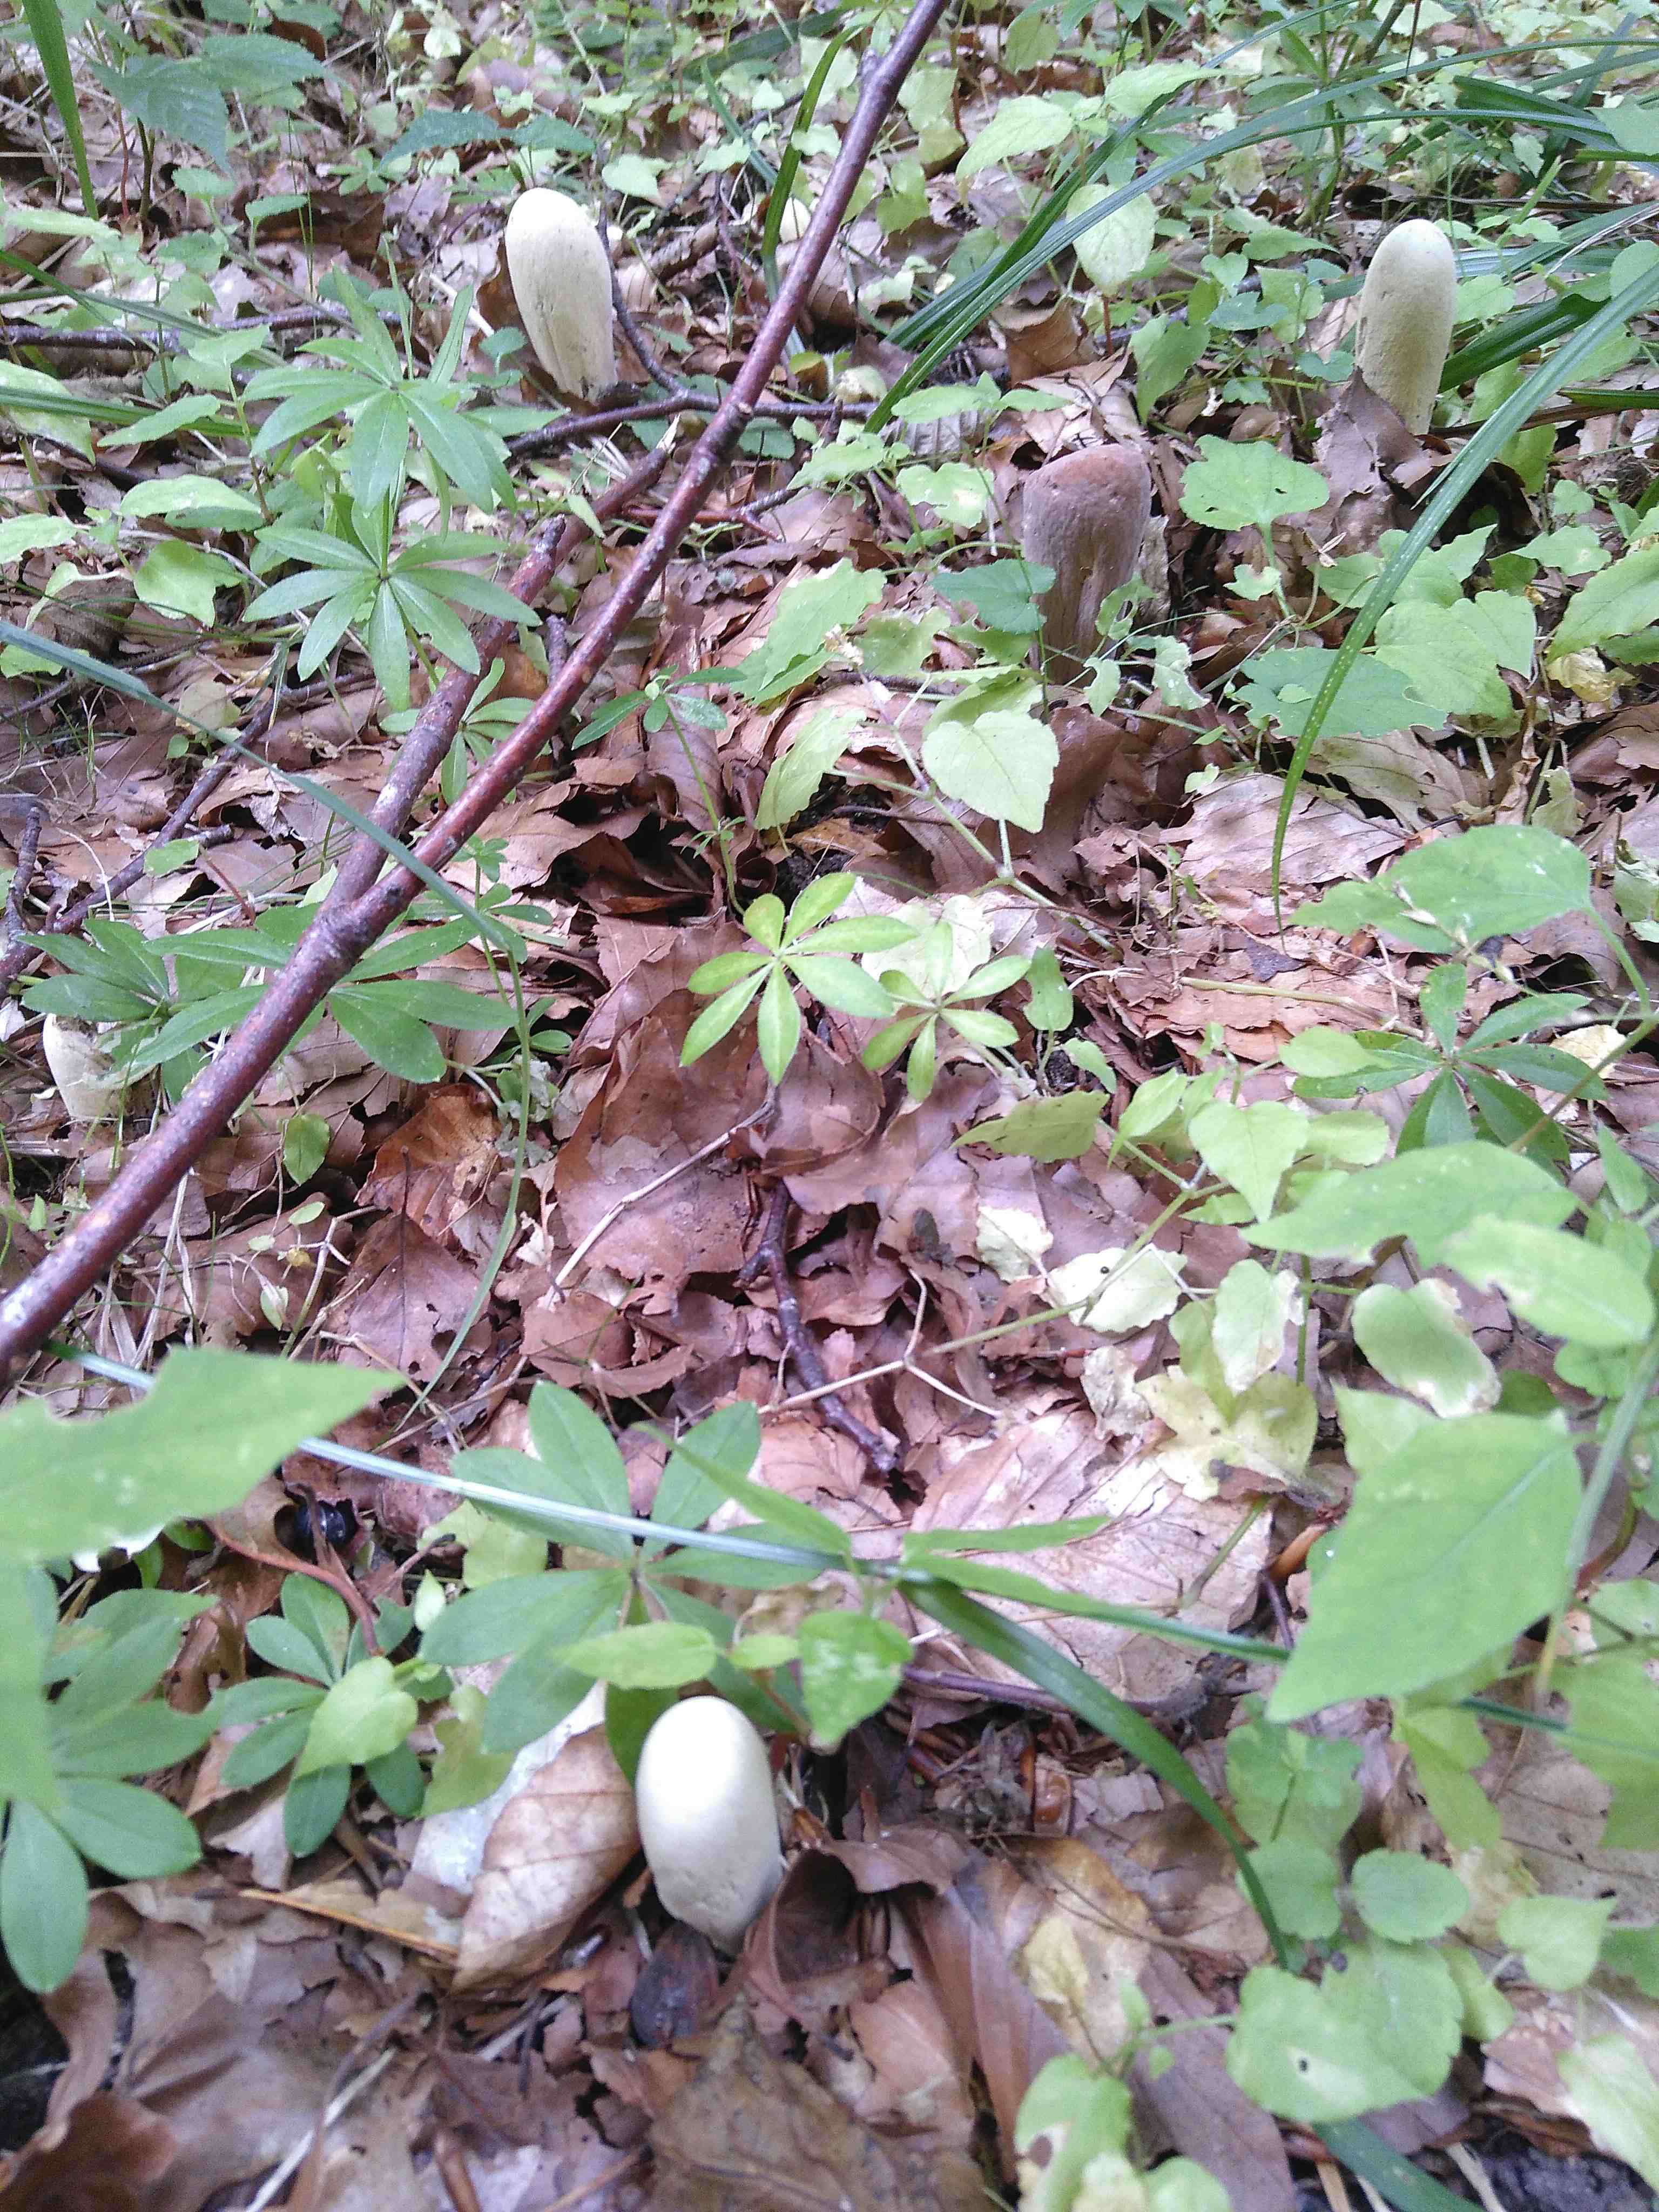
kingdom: Fungi
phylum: Basidiomycota
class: Agaricomycetes
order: Gomphales
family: Clavariadelphaceae
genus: Clavariadelphus
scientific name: Clavariadelphus pistillaris
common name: herkules-kæmpekølle
